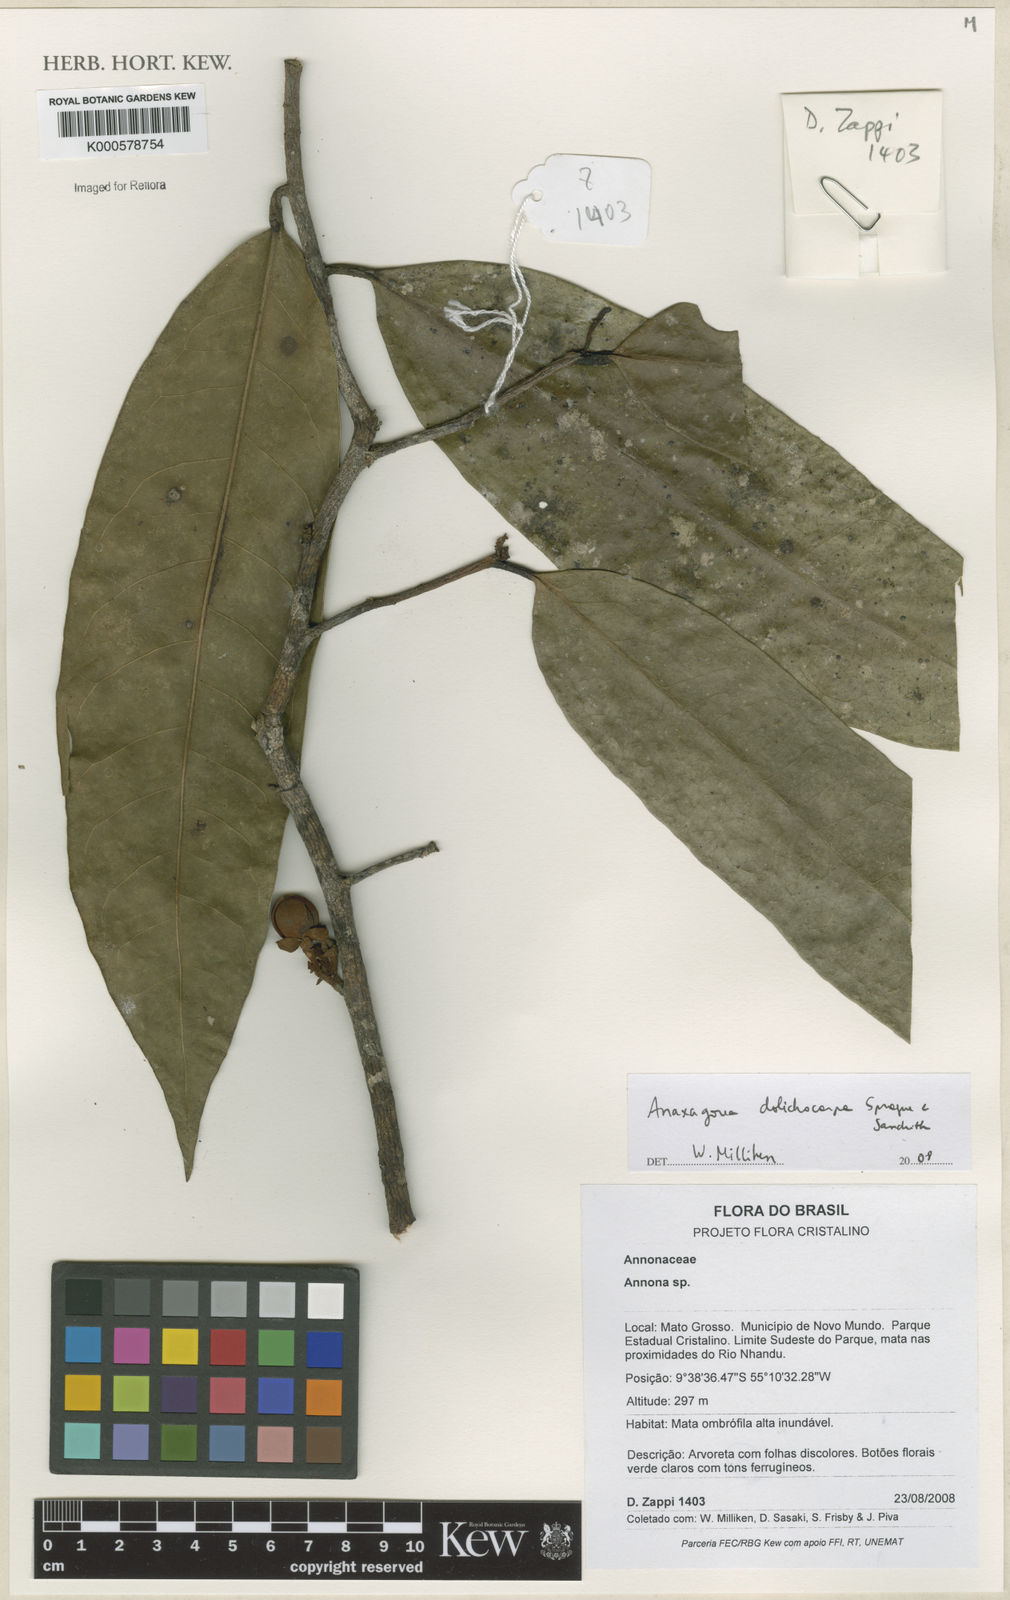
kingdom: Plantae
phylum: Tracheophyta
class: Magnoliopsida
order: Magnoliales
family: Annonaceae
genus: Anaxagorea
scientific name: Anaxagorea dolichocarpa
